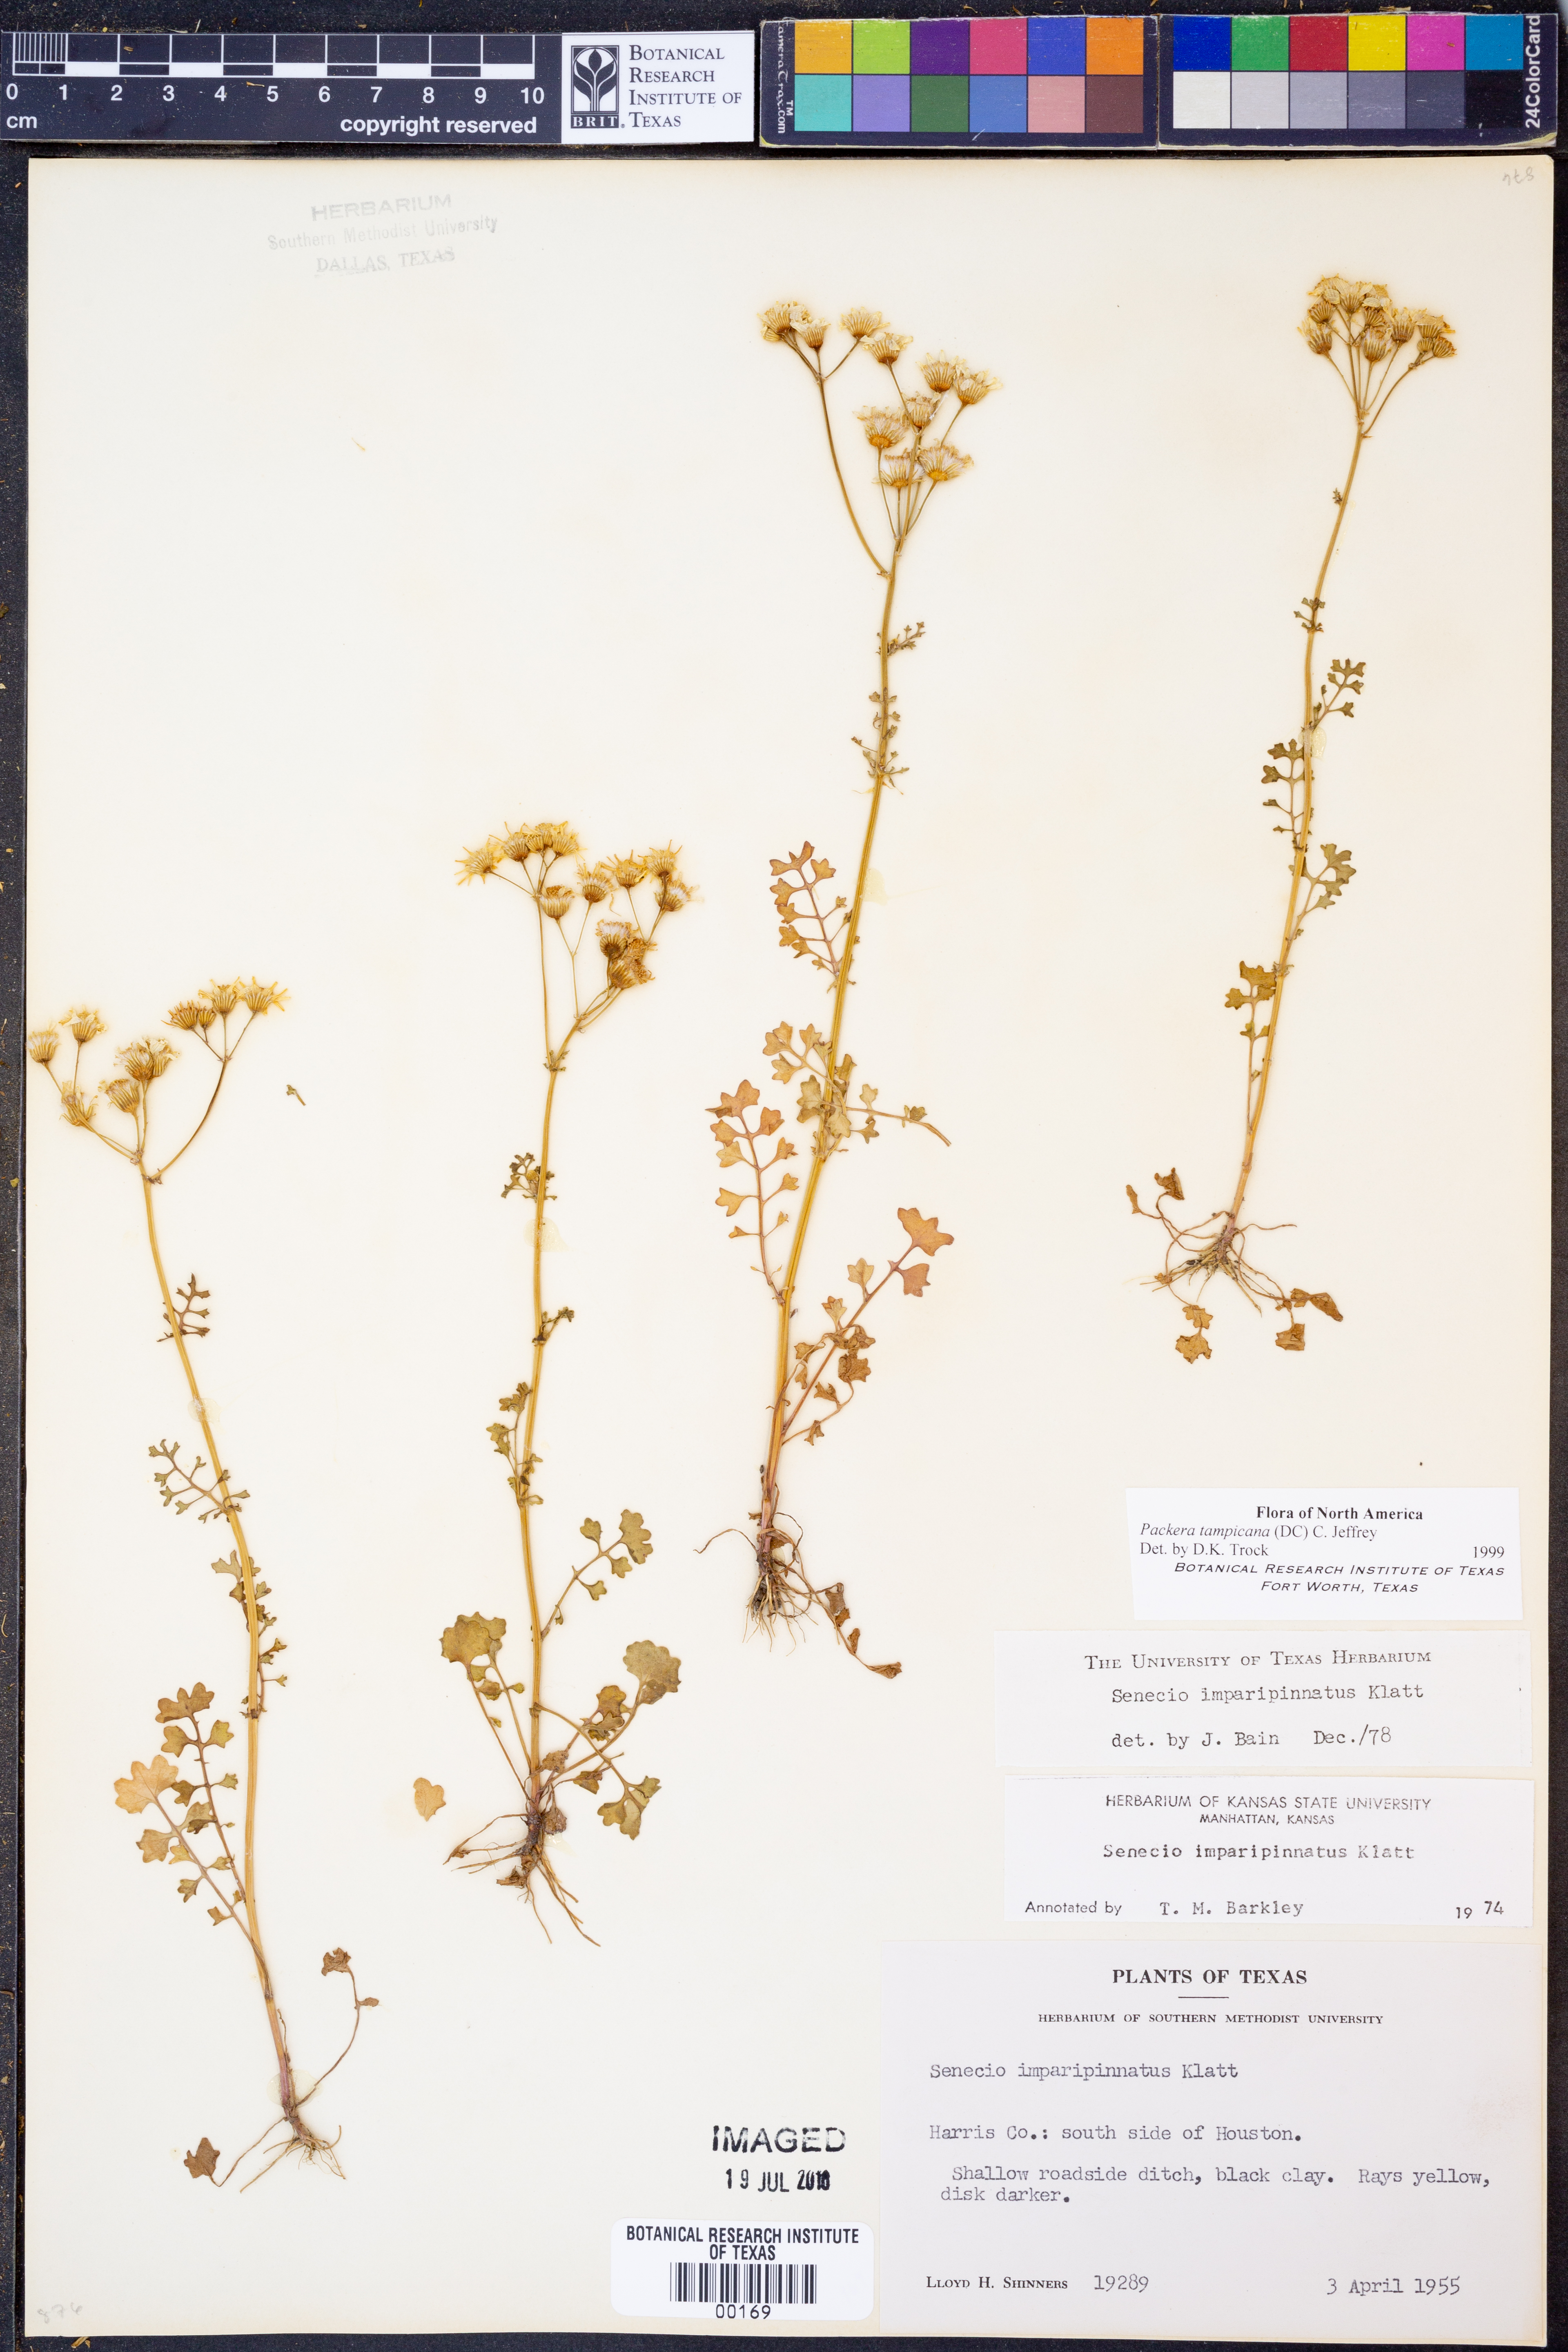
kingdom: Plantae
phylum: Tracheophyta
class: Magnoliopsida
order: Asterales
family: Asteraceae
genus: Packera
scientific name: Packera tampicana
